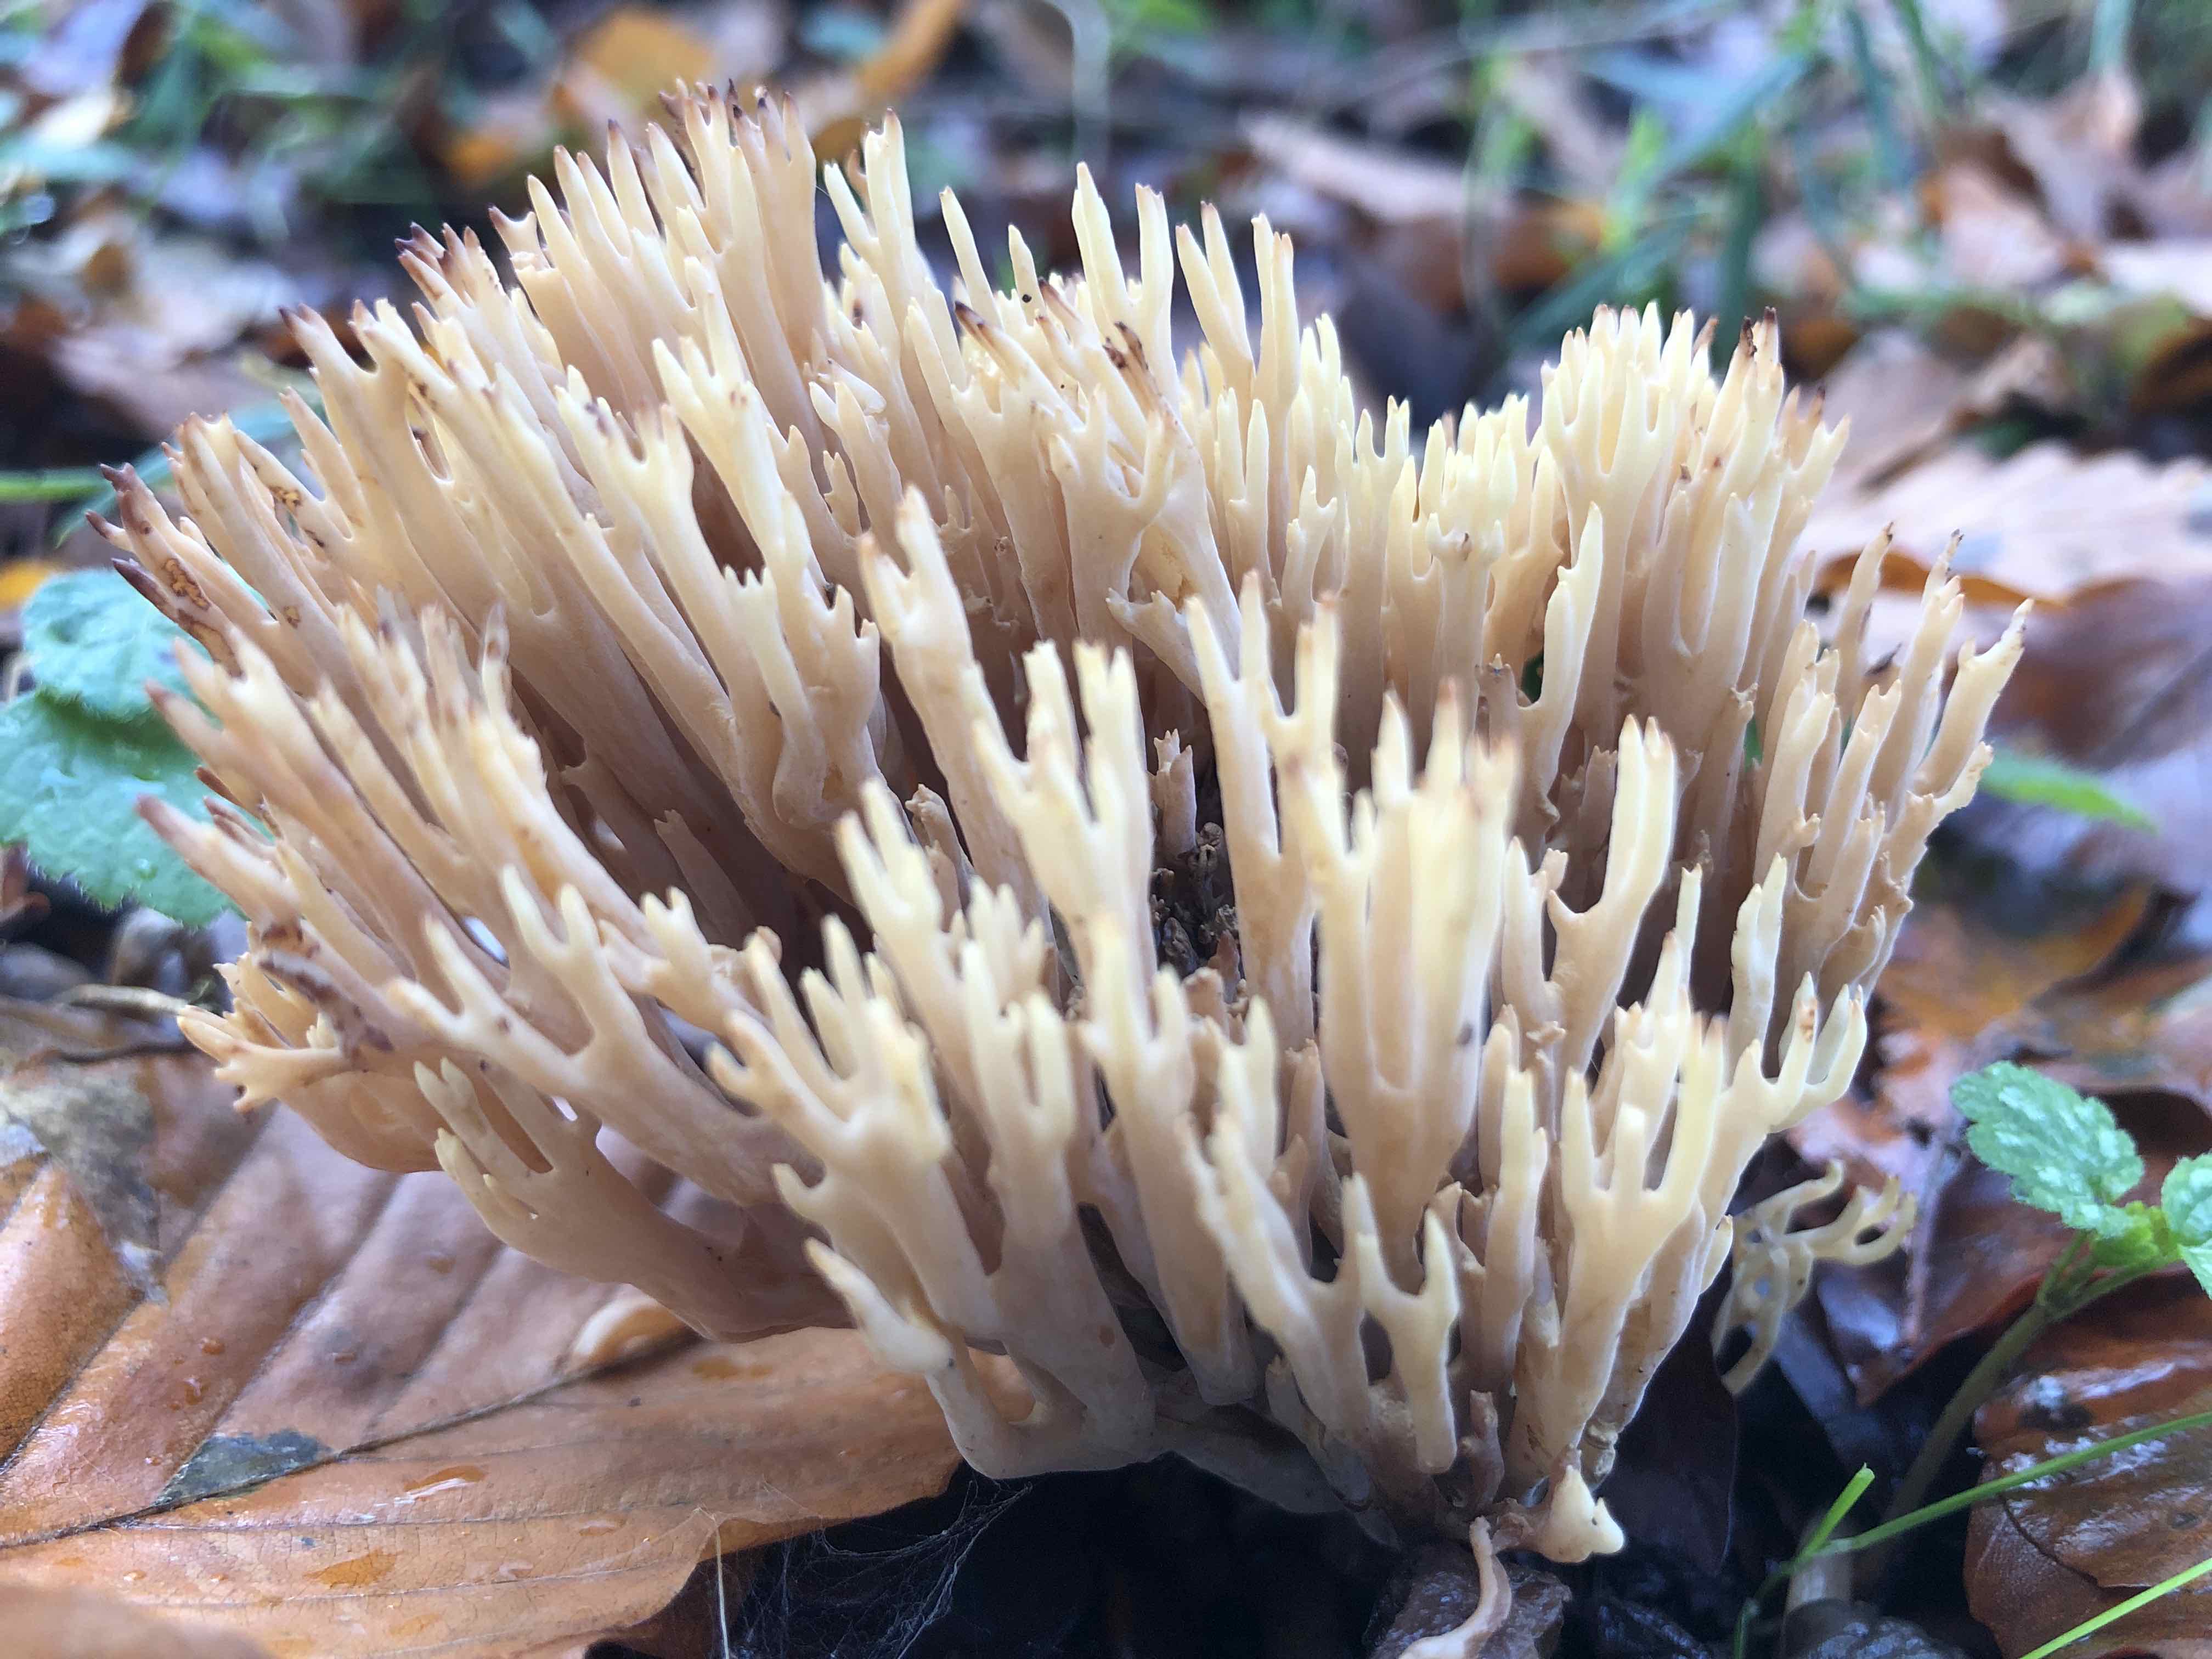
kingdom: Fungi
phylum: Basidiomycota
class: Agaricomycetes
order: Gomphales
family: Gomphaceae
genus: Ramaria
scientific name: Ramaria stricta
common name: rank koralsvamp
